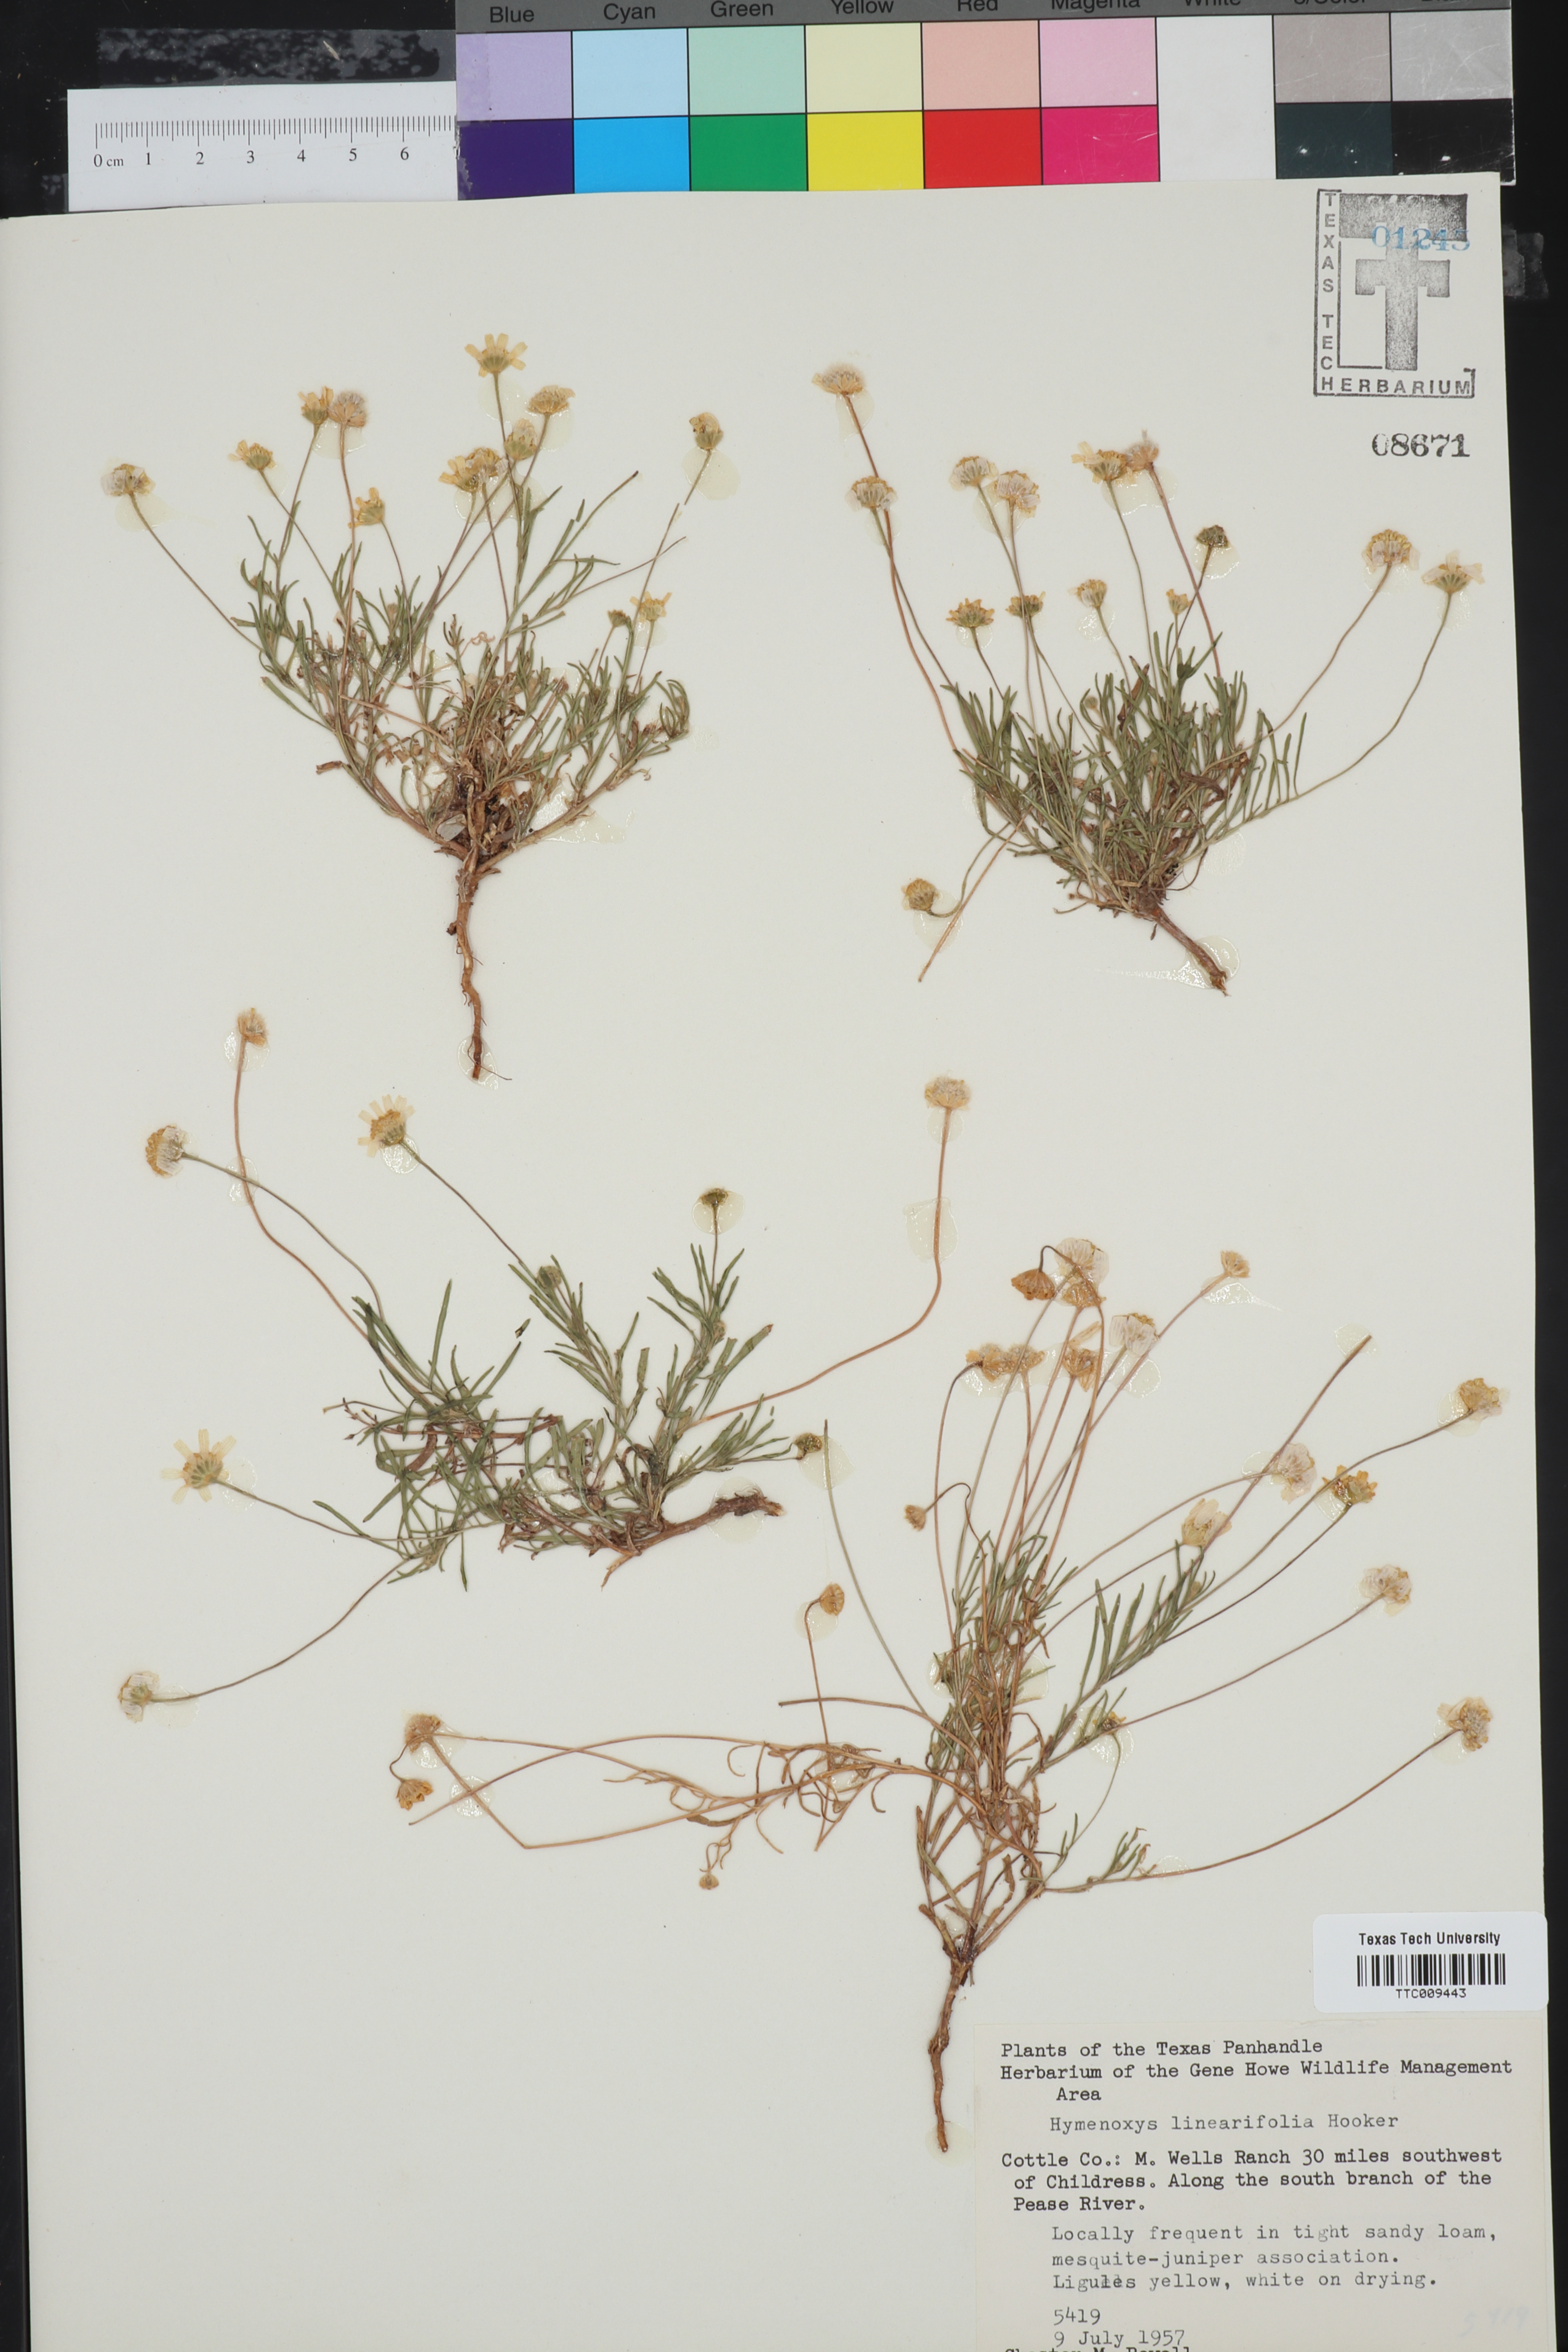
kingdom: Plantae
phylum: Tracheophyta
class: Magnoliopsida
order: Asterales
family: Asteraceae
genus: Tetraneuris
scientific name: Tetraneuris linearifolia
